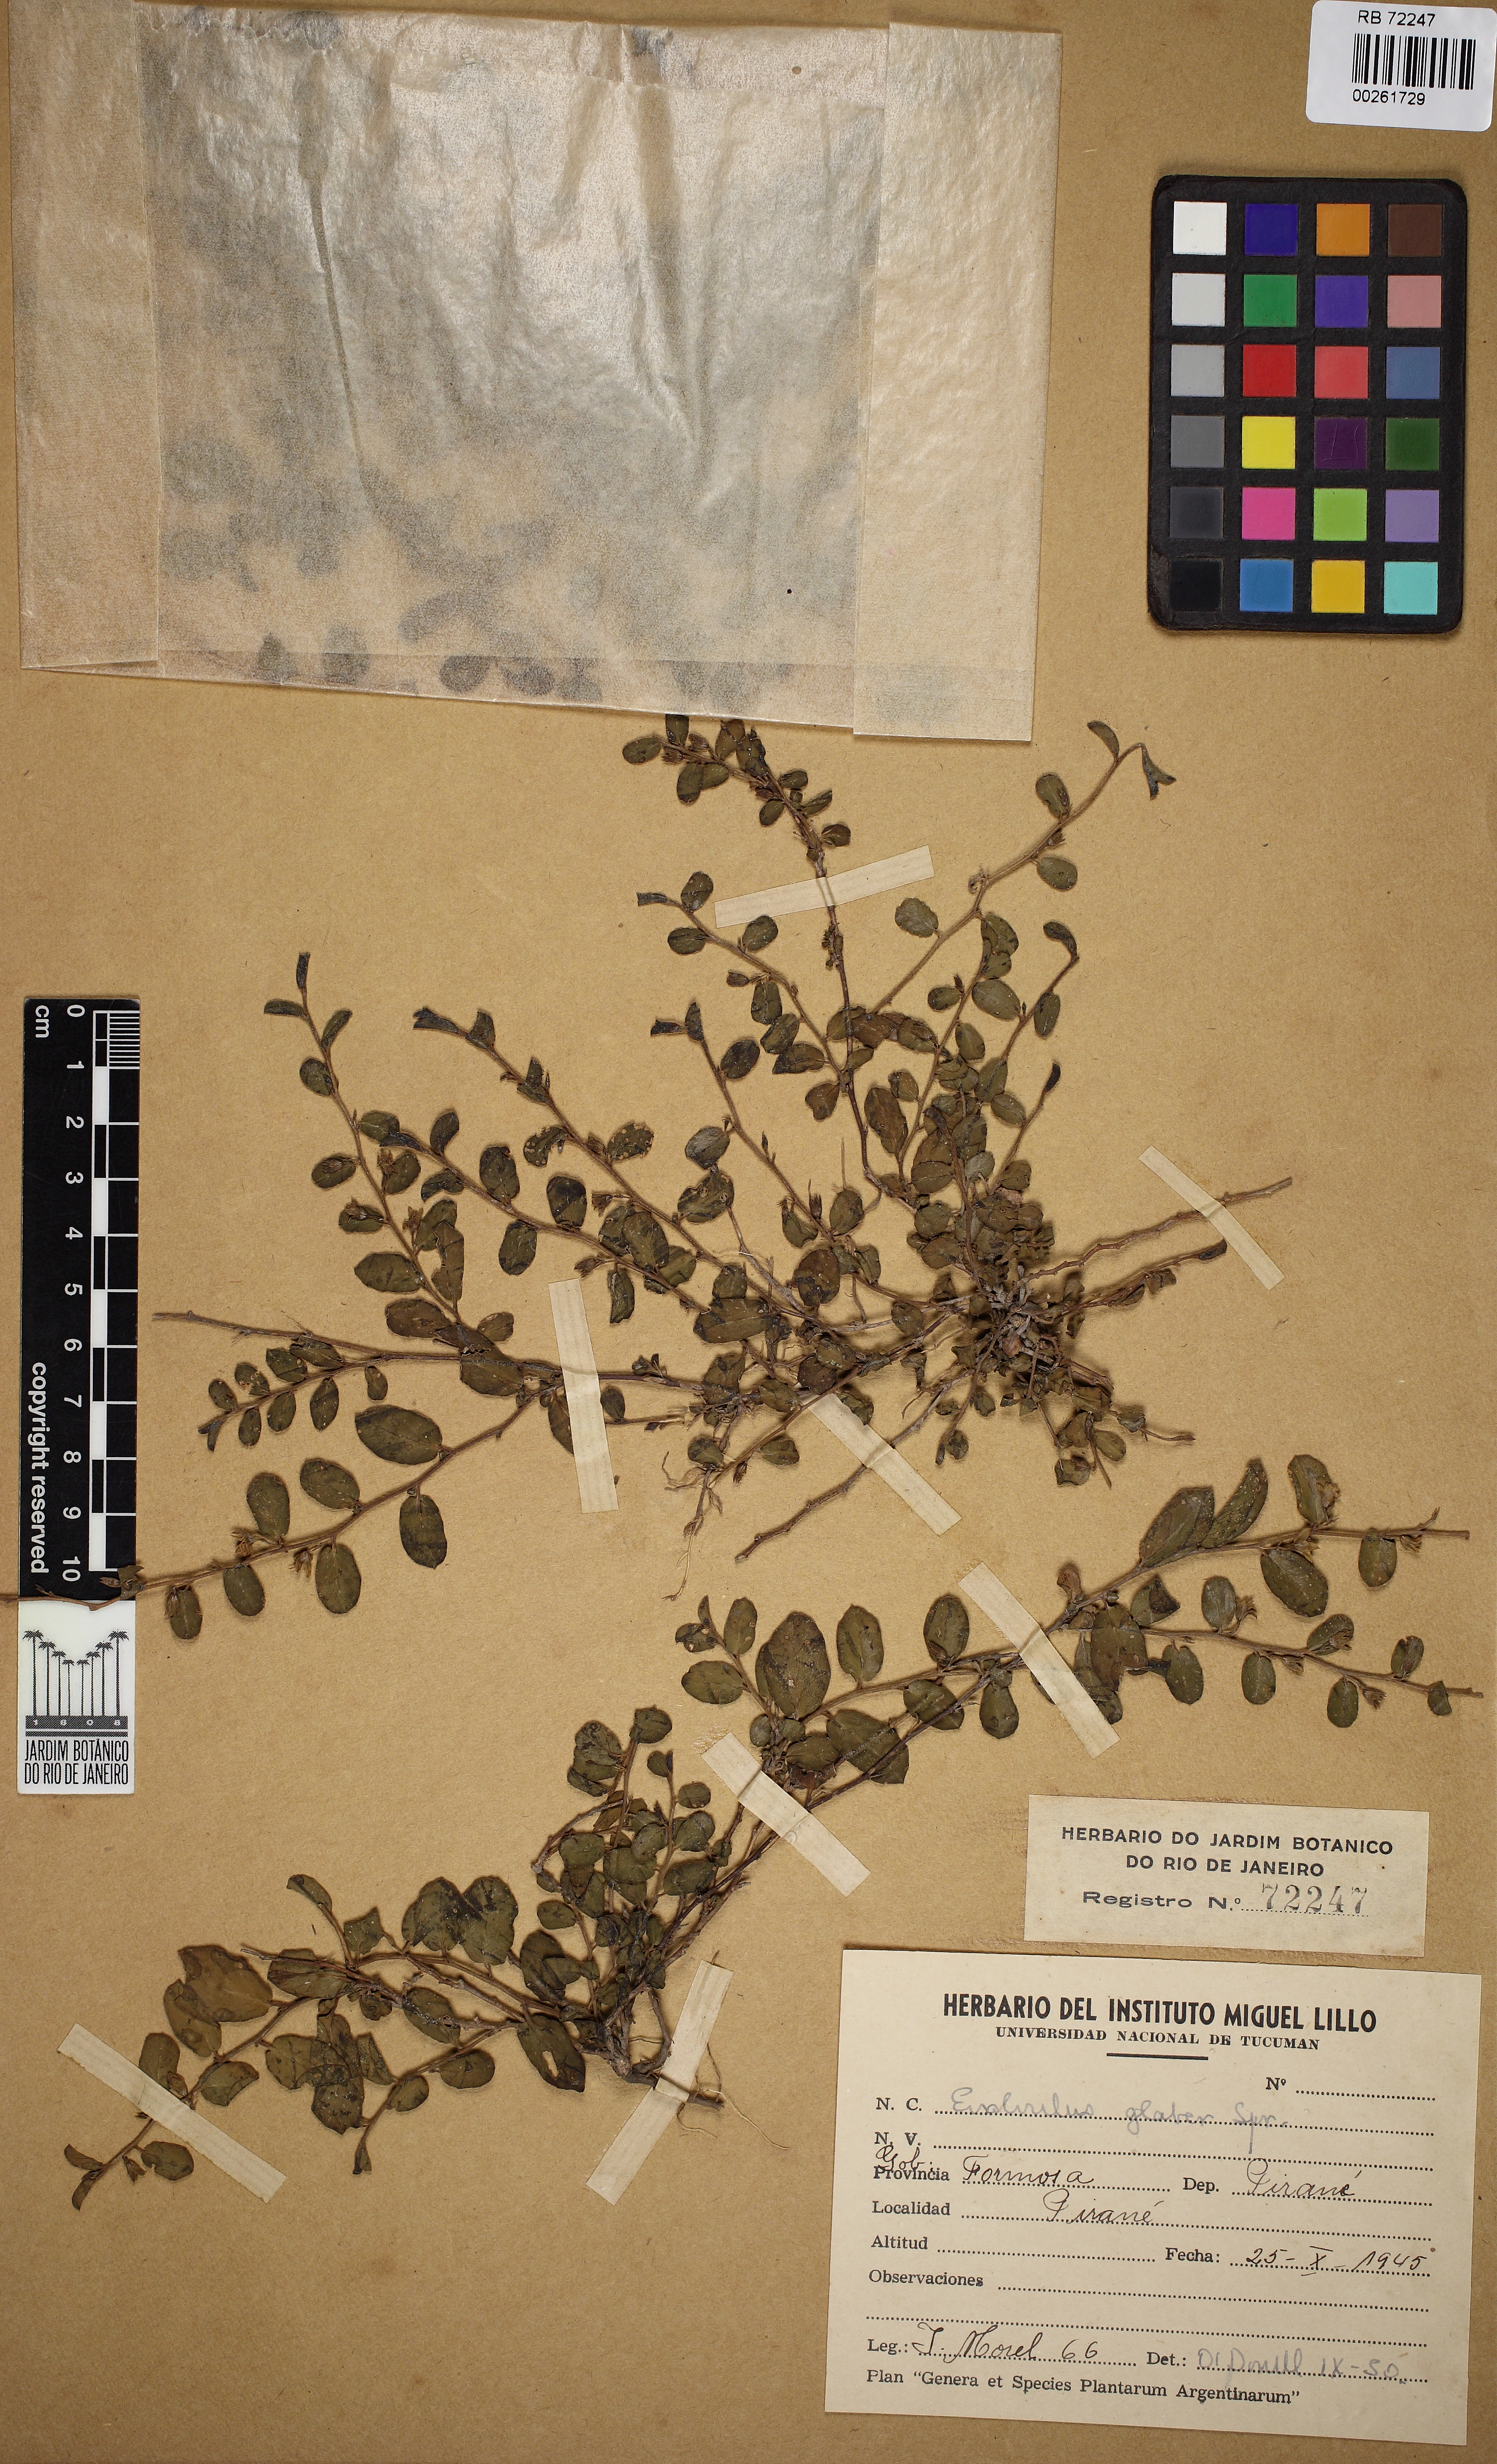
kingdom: Plantae
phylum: Tracheophyta
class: Magnoliopsida
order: Solanales
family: Convolvulaceae
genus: Evolvulus
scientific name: Evolvulus convolvuloides
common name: Bindweed dwarf morning-glory
